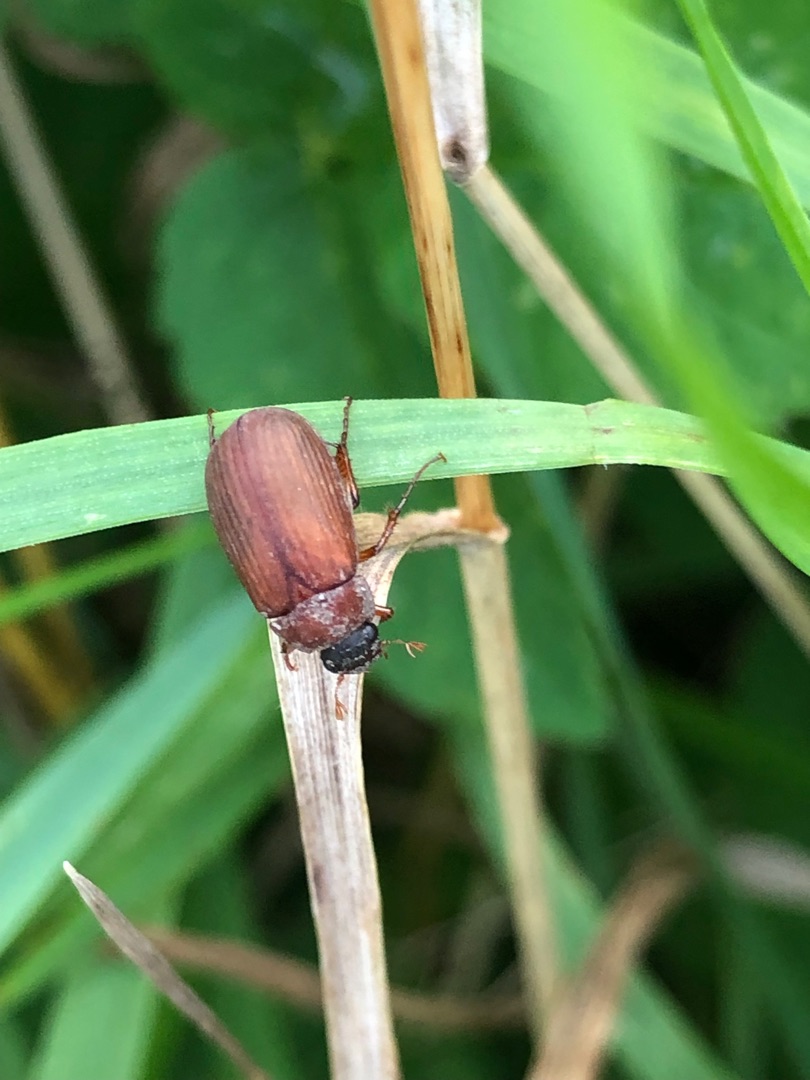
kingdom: Animalia
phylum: Arthropoda
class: Insecta
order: Coleoptera
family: Scarabaeidae
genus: Serica
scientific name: Serica brunnea
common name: Natoldenborre
